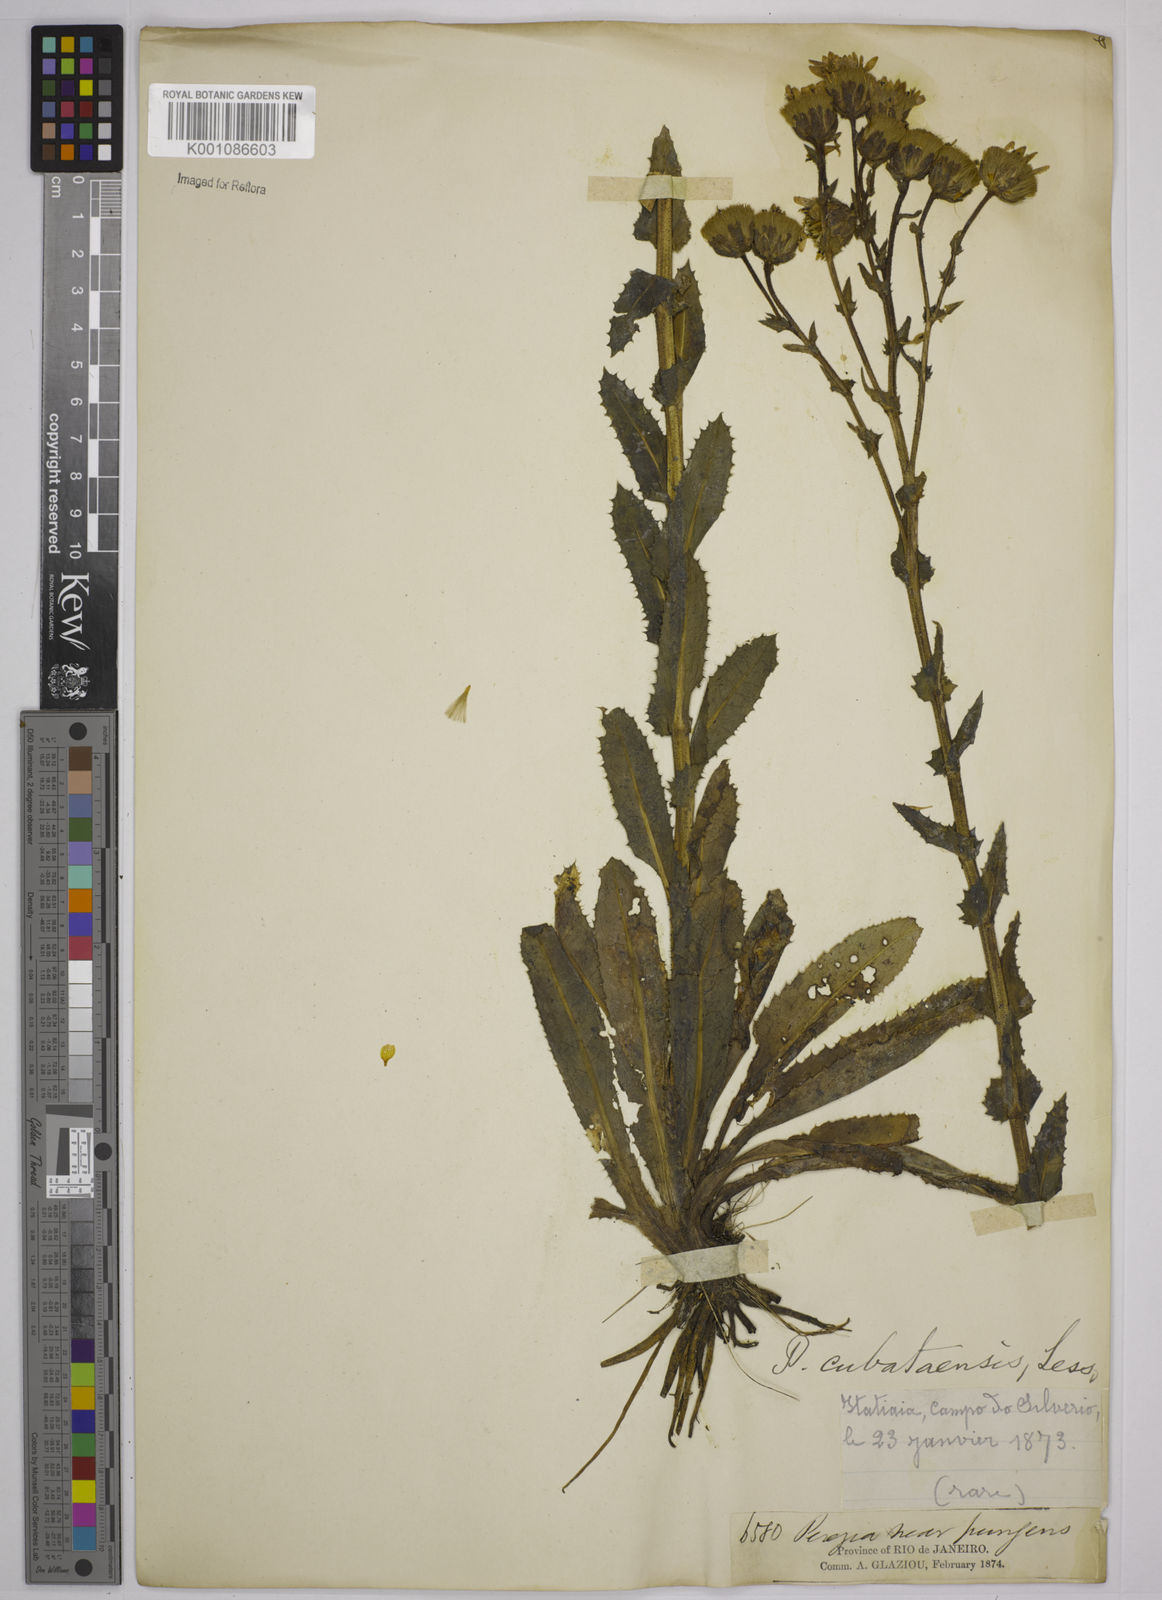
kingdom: Plantae
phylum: Tracheophyta
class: Magnoliopsida
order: Asterales
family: Asteraceae
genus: Perezia
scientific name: Perezia squarrosa
